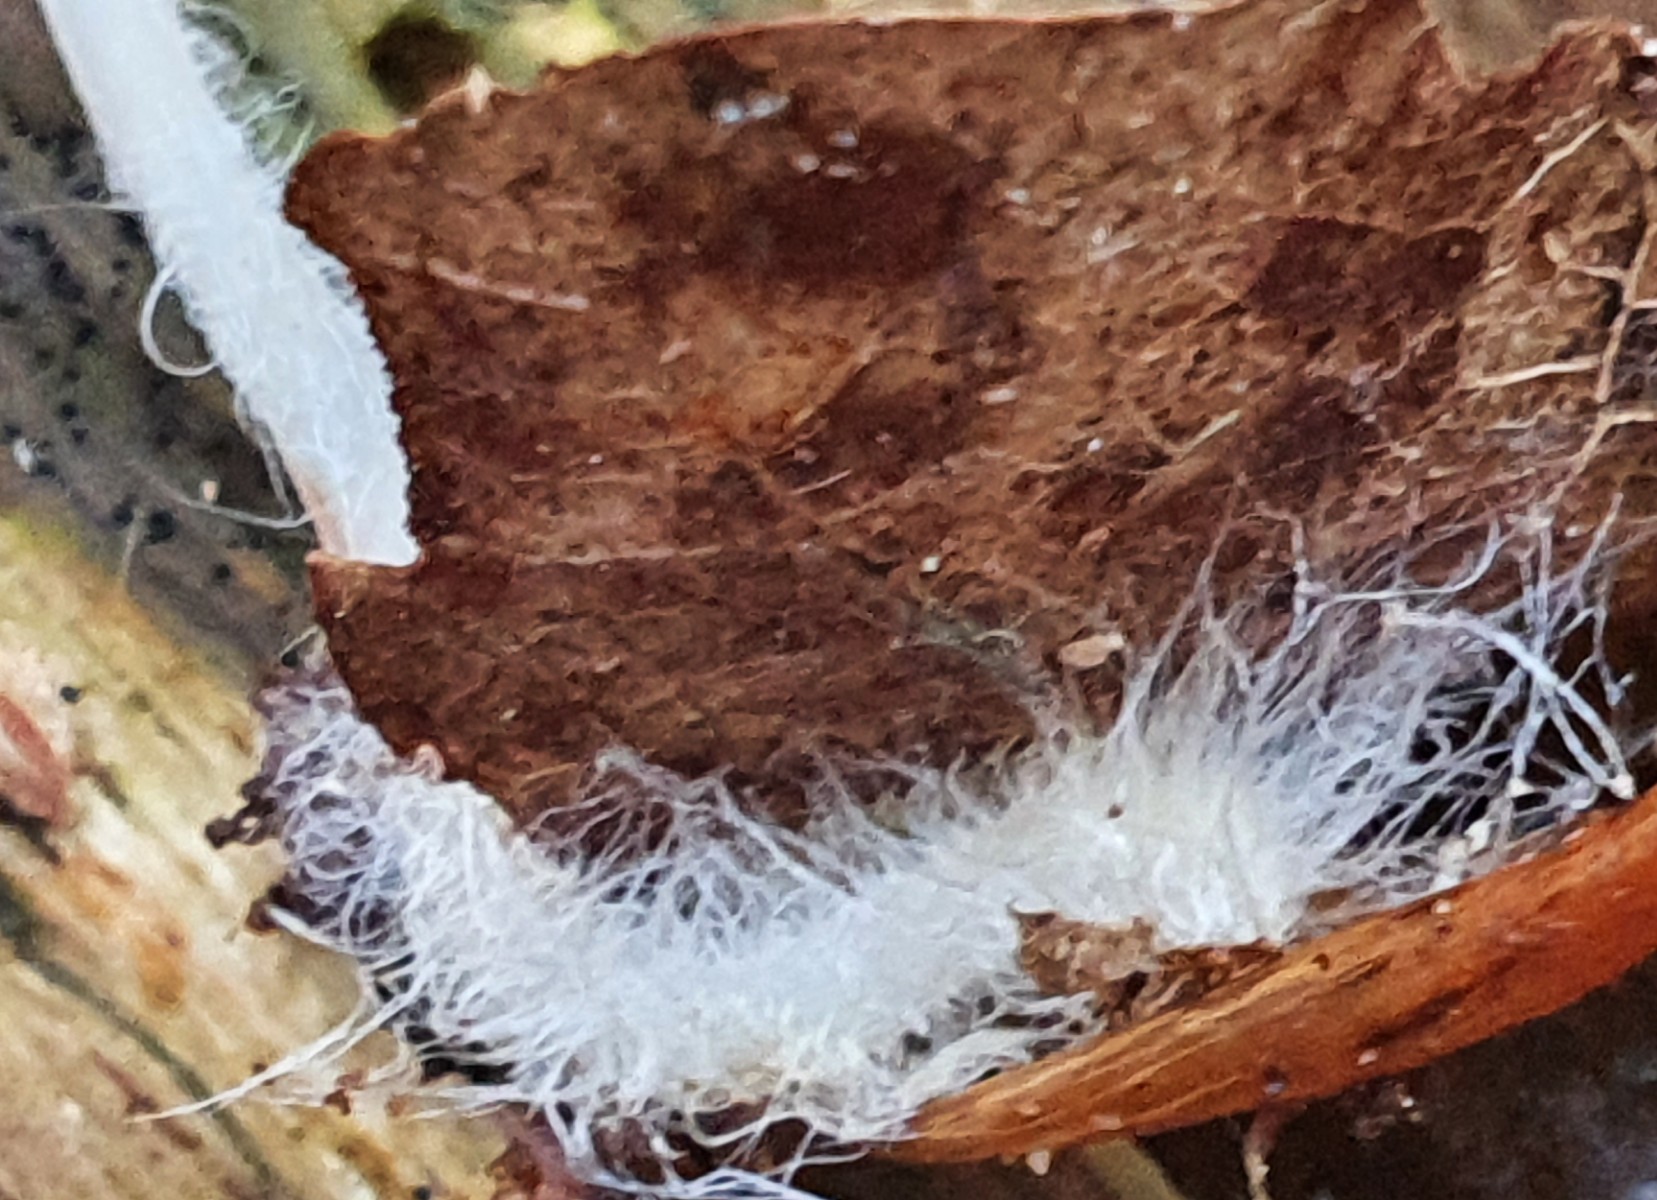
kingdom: Fungi
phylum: Basidiomycota
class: Agaricomycetes
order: Agaricales
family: Mycenaceae
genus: Mycena
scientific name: Mycena vitilis
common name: blankstokket huesvamp
